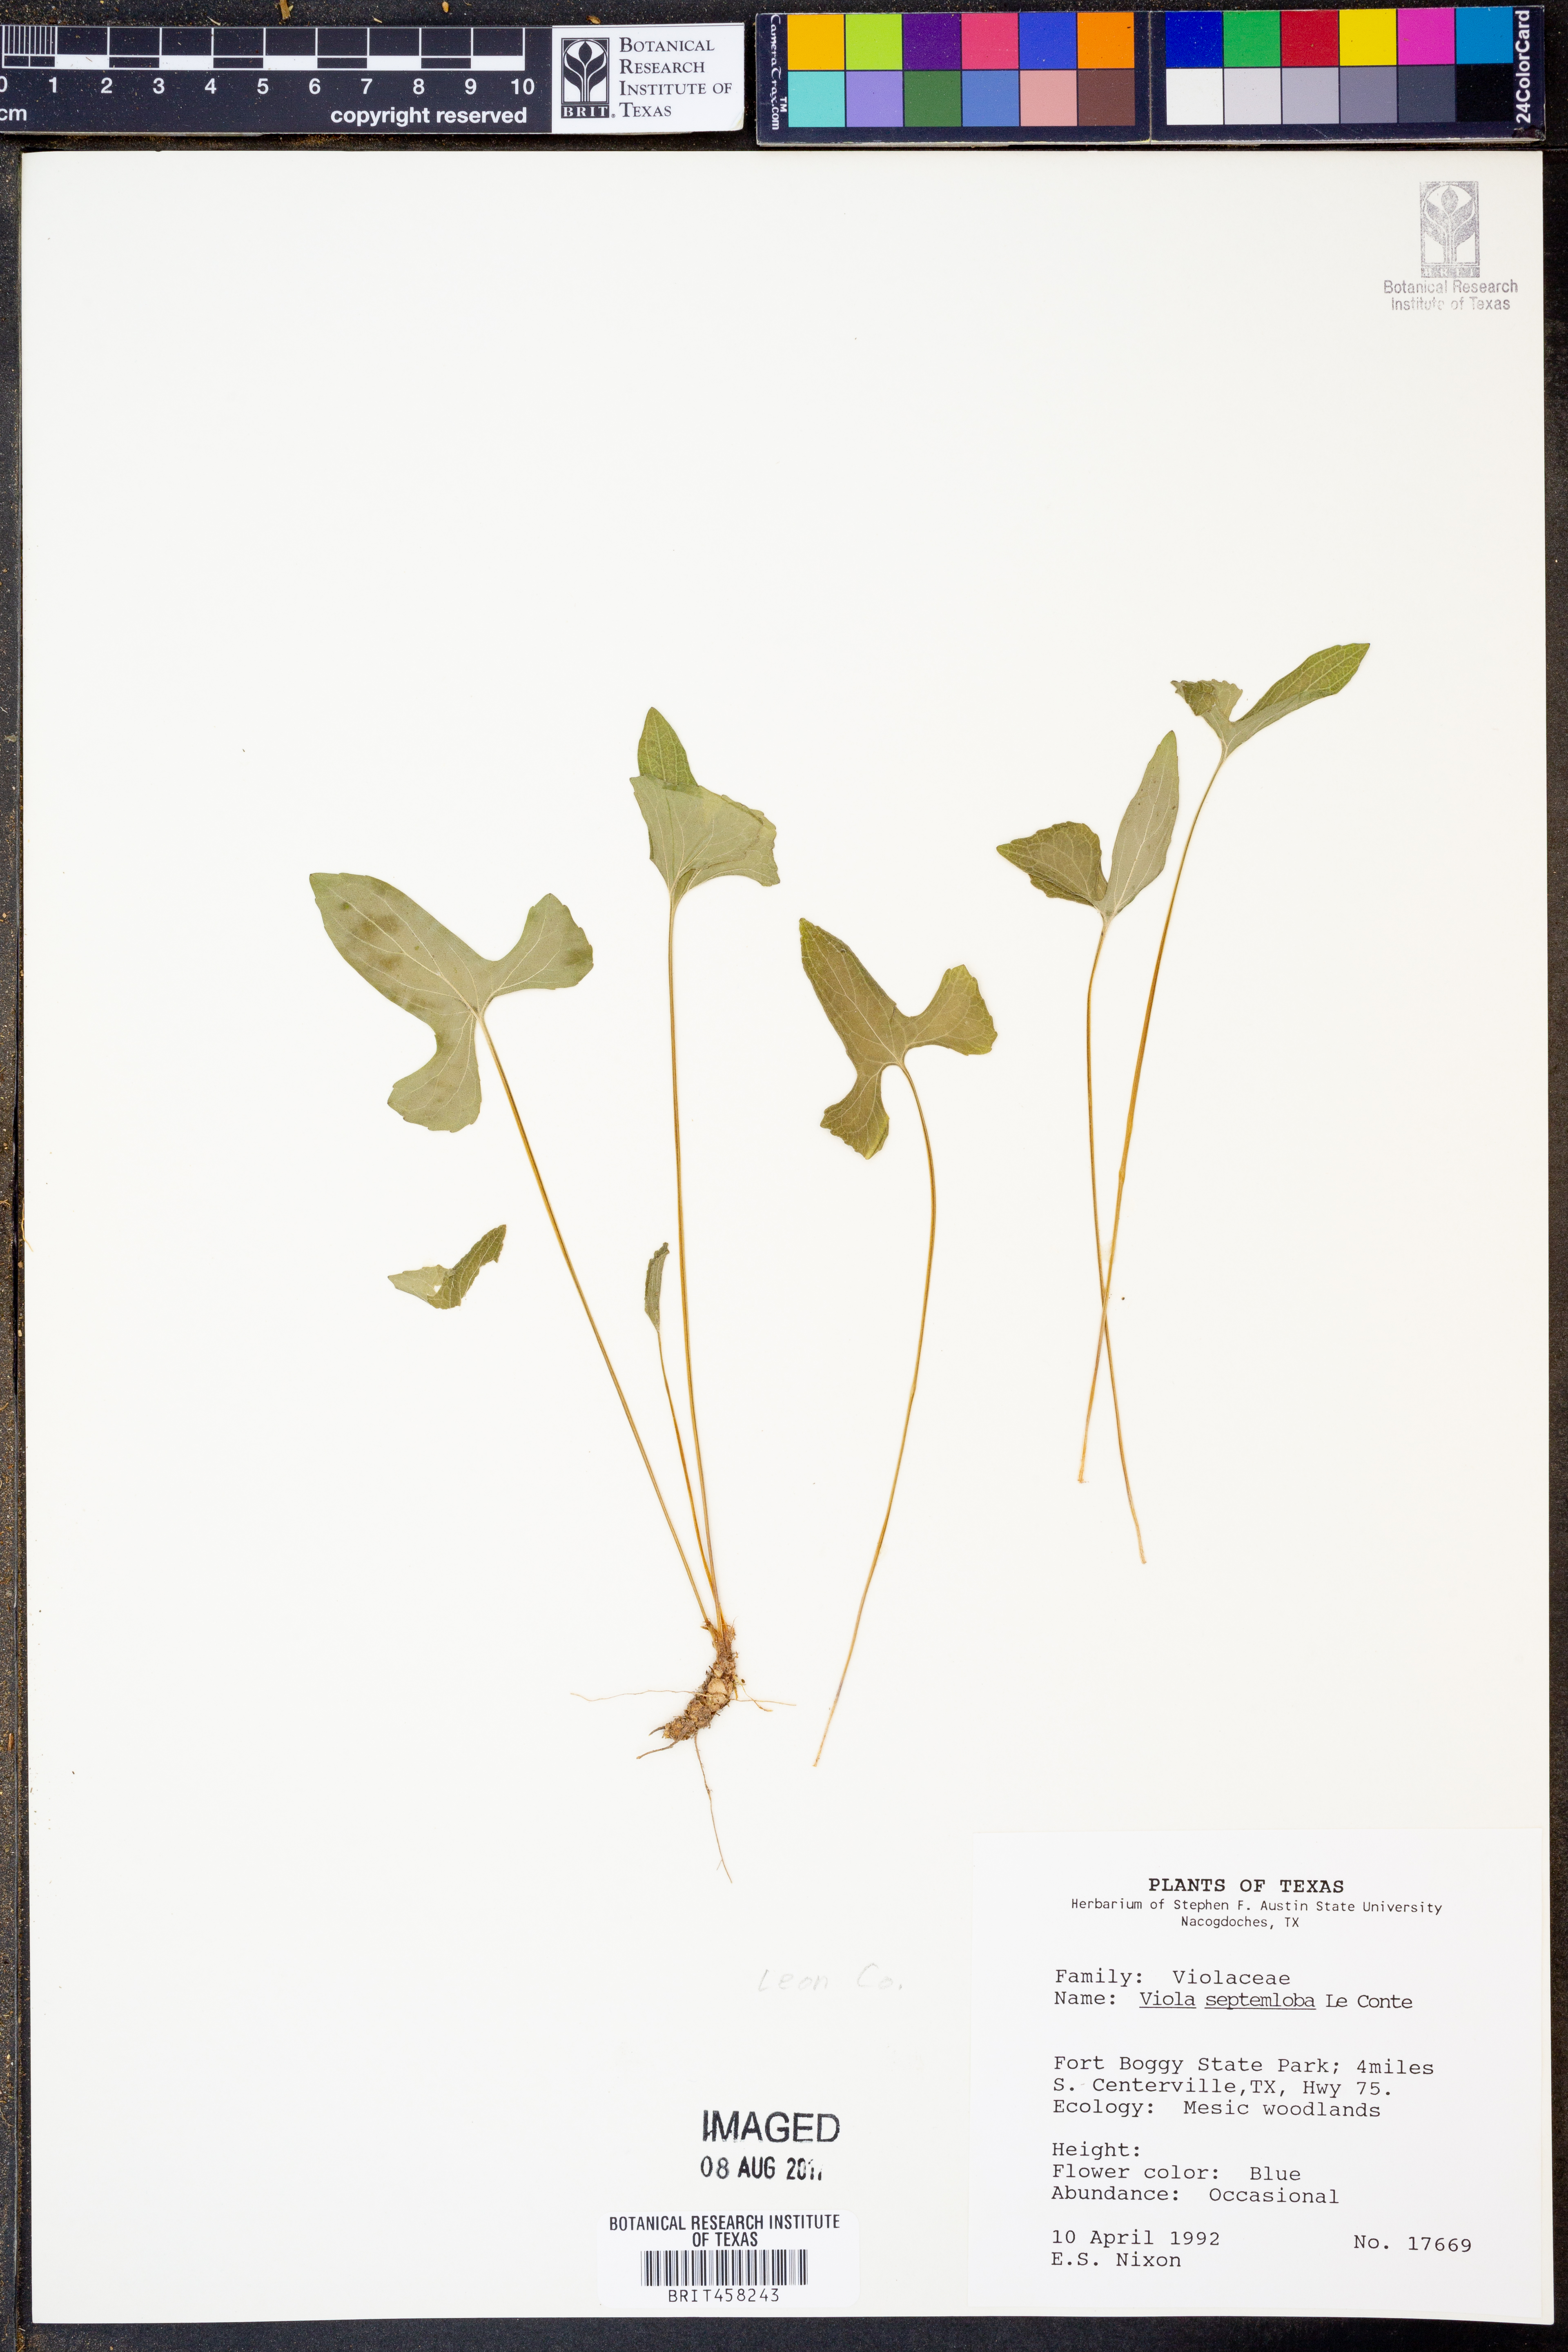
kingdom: Plantae
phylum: Tracheophyta
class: Magnoliopsida
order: Malpighiales
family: Violaceae
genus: Viola
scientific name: Viola septemloba
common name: Southern coast violet
